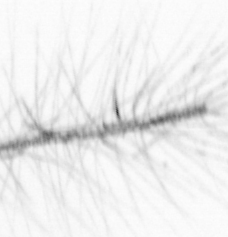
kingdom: Chromista
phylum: Ochrophyta
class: Bacillariophyceae
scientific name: Bacillariophyceae
